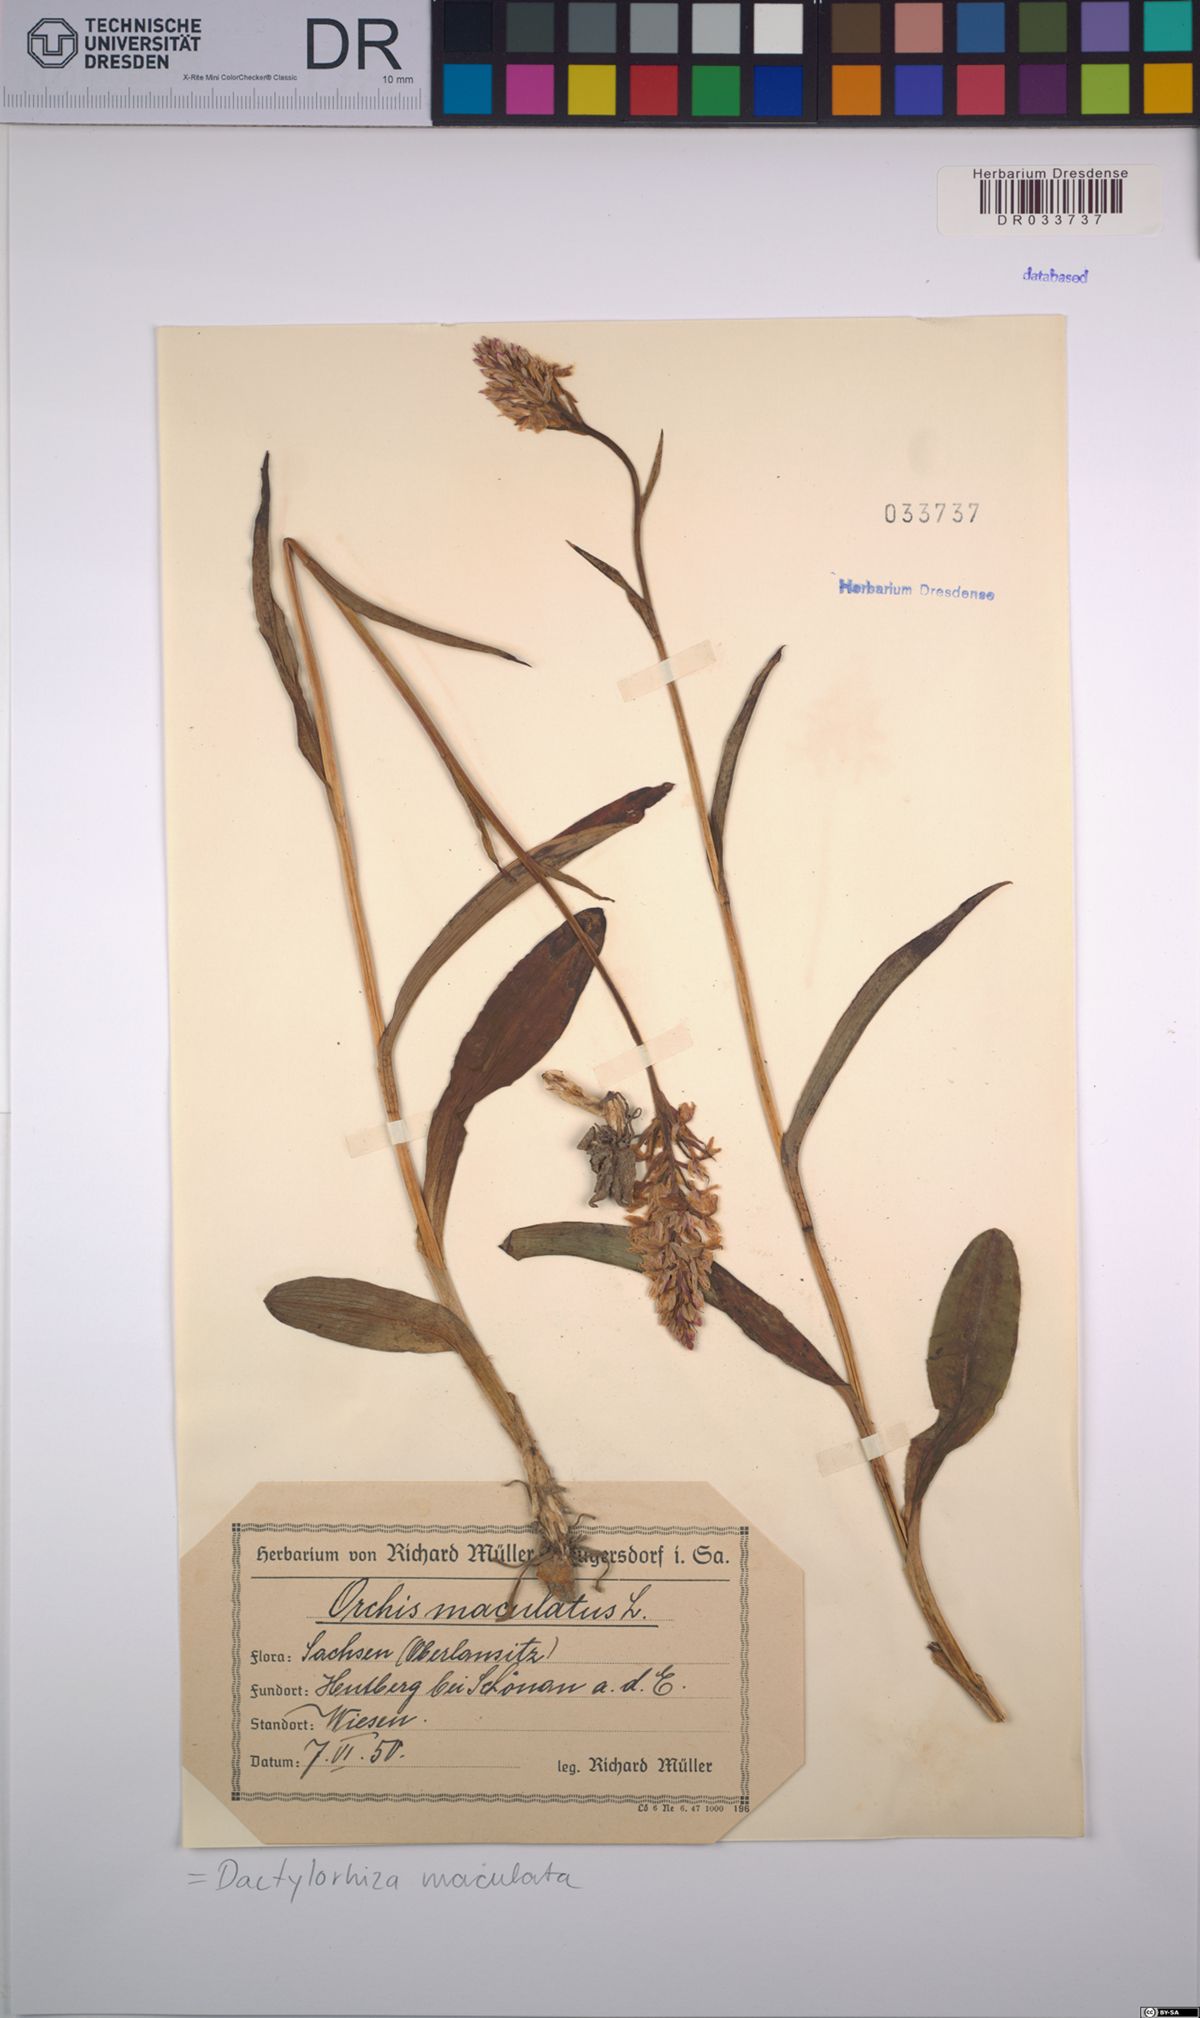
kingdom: Plantae
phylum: Tracheophyta
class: Liliopsida
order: Asparagales
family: Orchidaceae
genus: Dactylorhiza
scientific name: Dactylorhiza maculata
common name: Heath spotted-orchid
